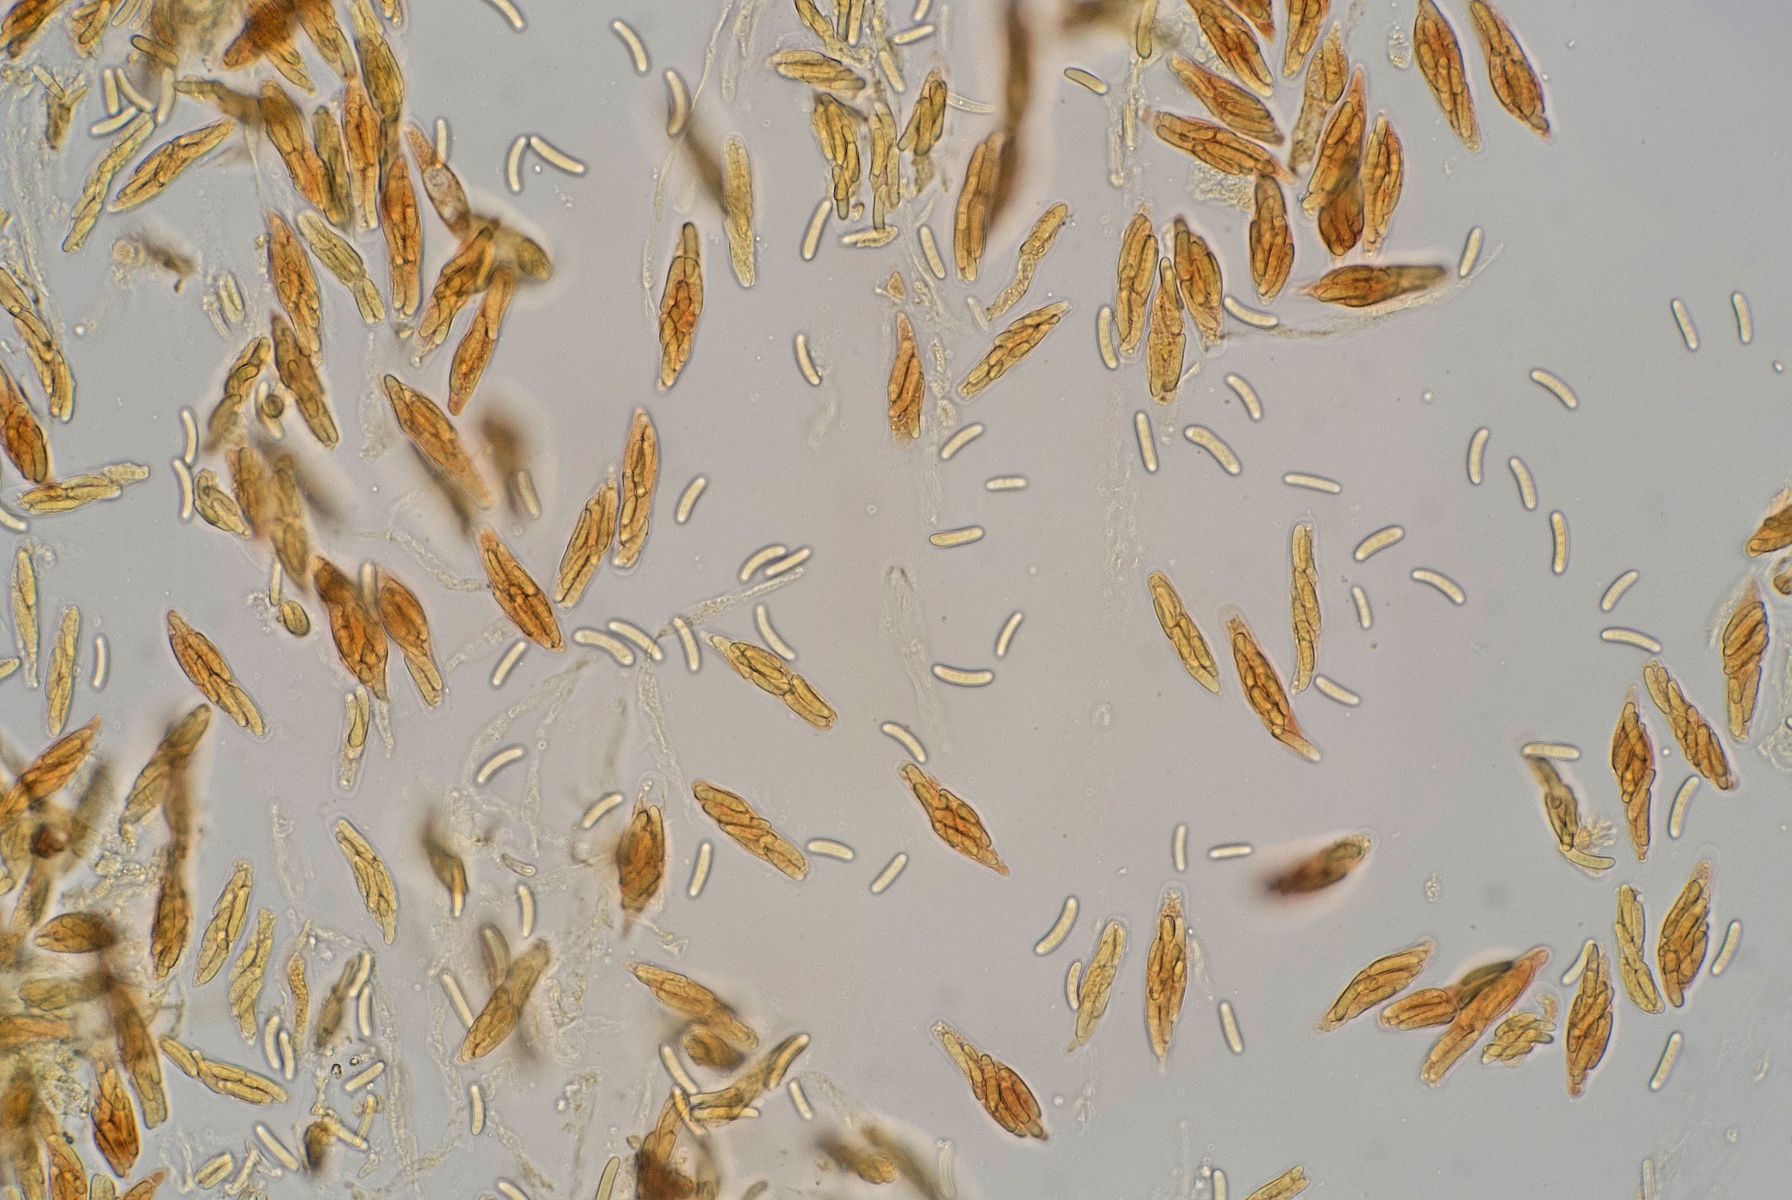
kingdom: Fungi
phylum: Ascomycota
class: Sordariomycetes
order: Diaporthales
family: Valsaceae
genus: Cytospora
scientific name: Cytospora
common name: kulknippe
